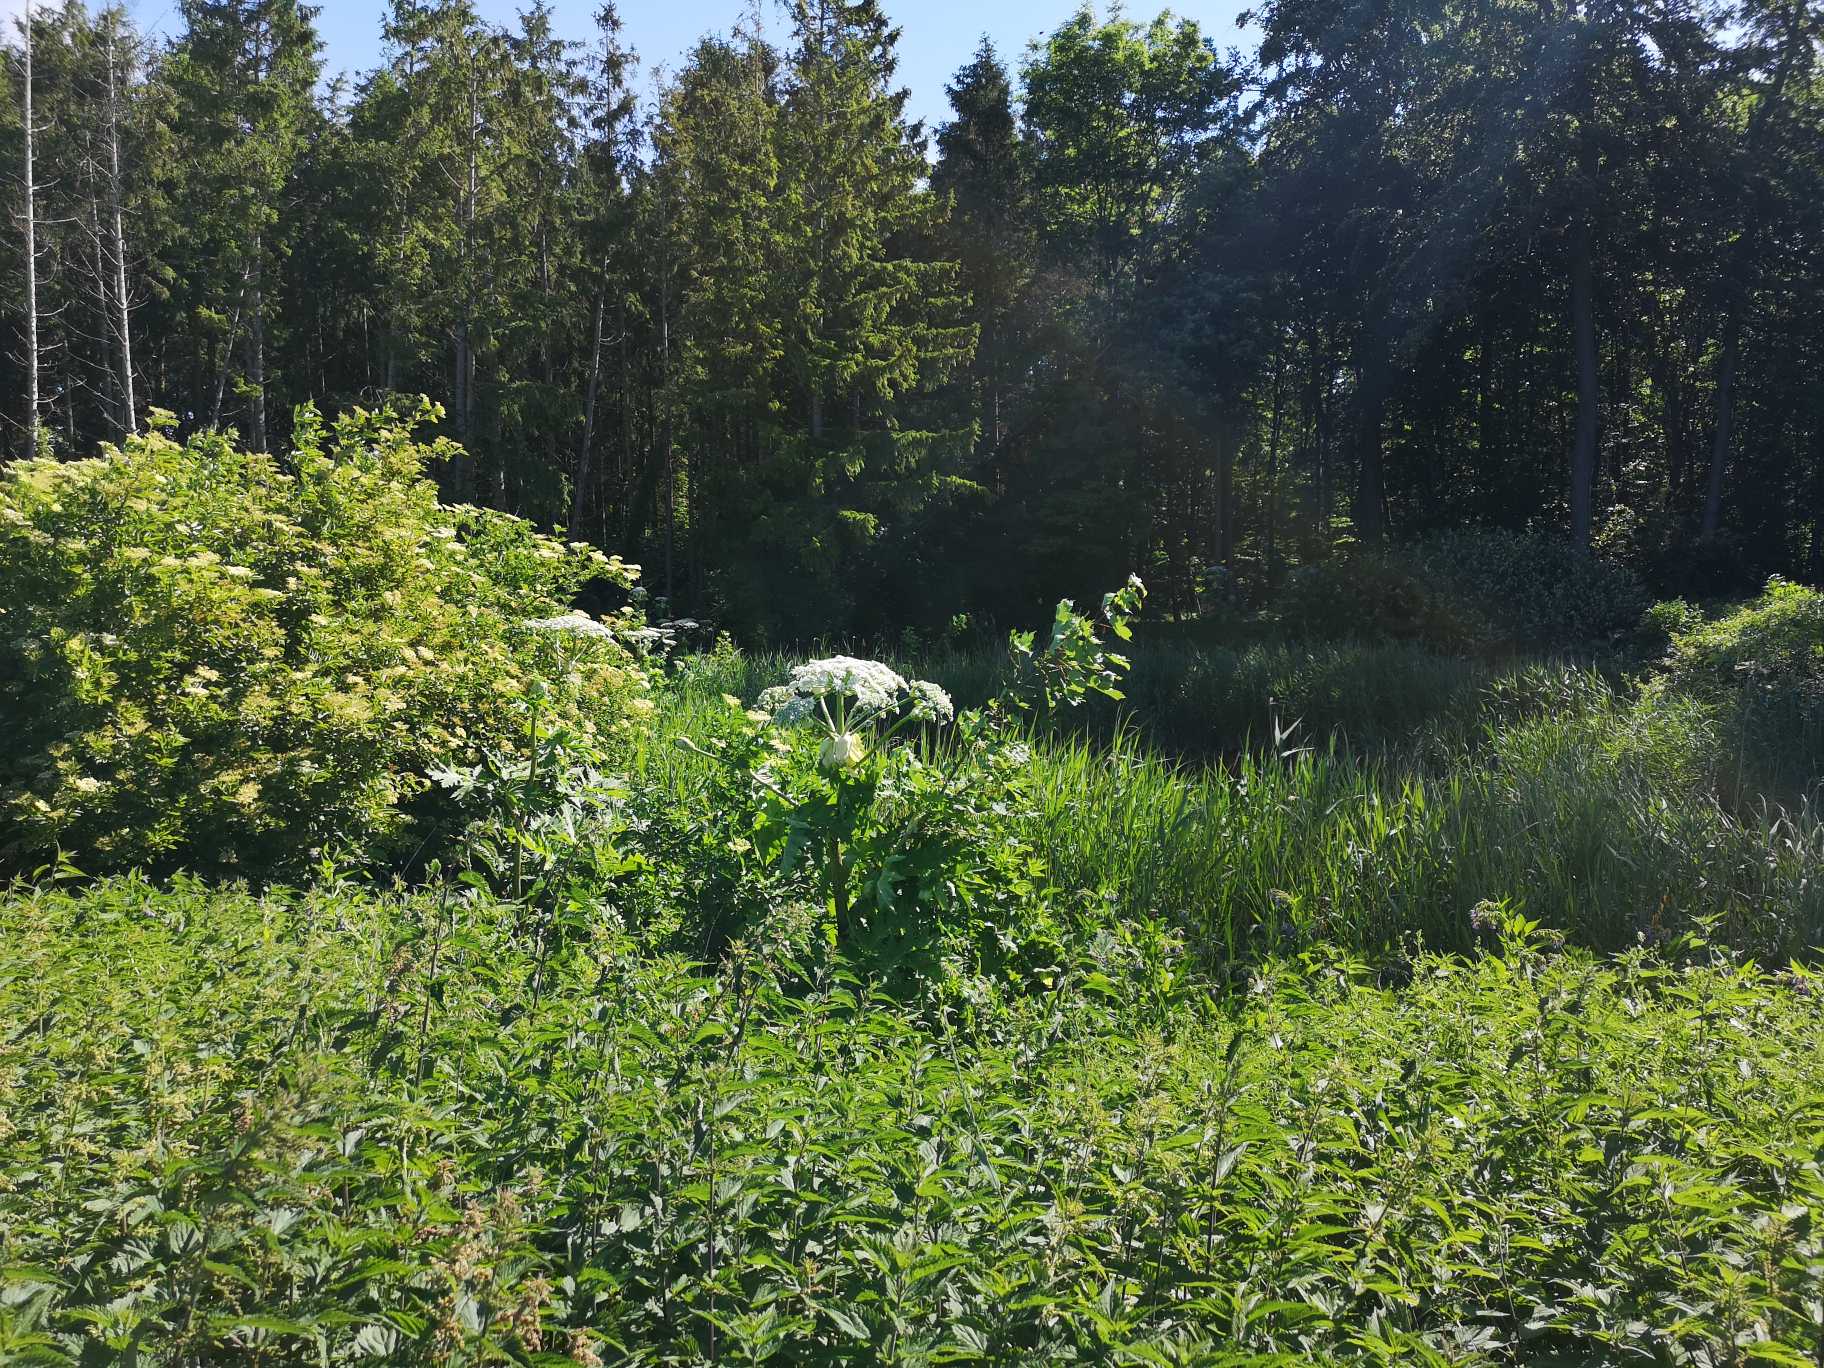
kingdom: Plantae
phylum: Tracheophyta
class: Magnoliopsida
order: Apiales
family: Apiaceae
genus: Heracleum
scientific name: Heracleum mantegazzianum
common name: Kæmpe-bjørneklo
